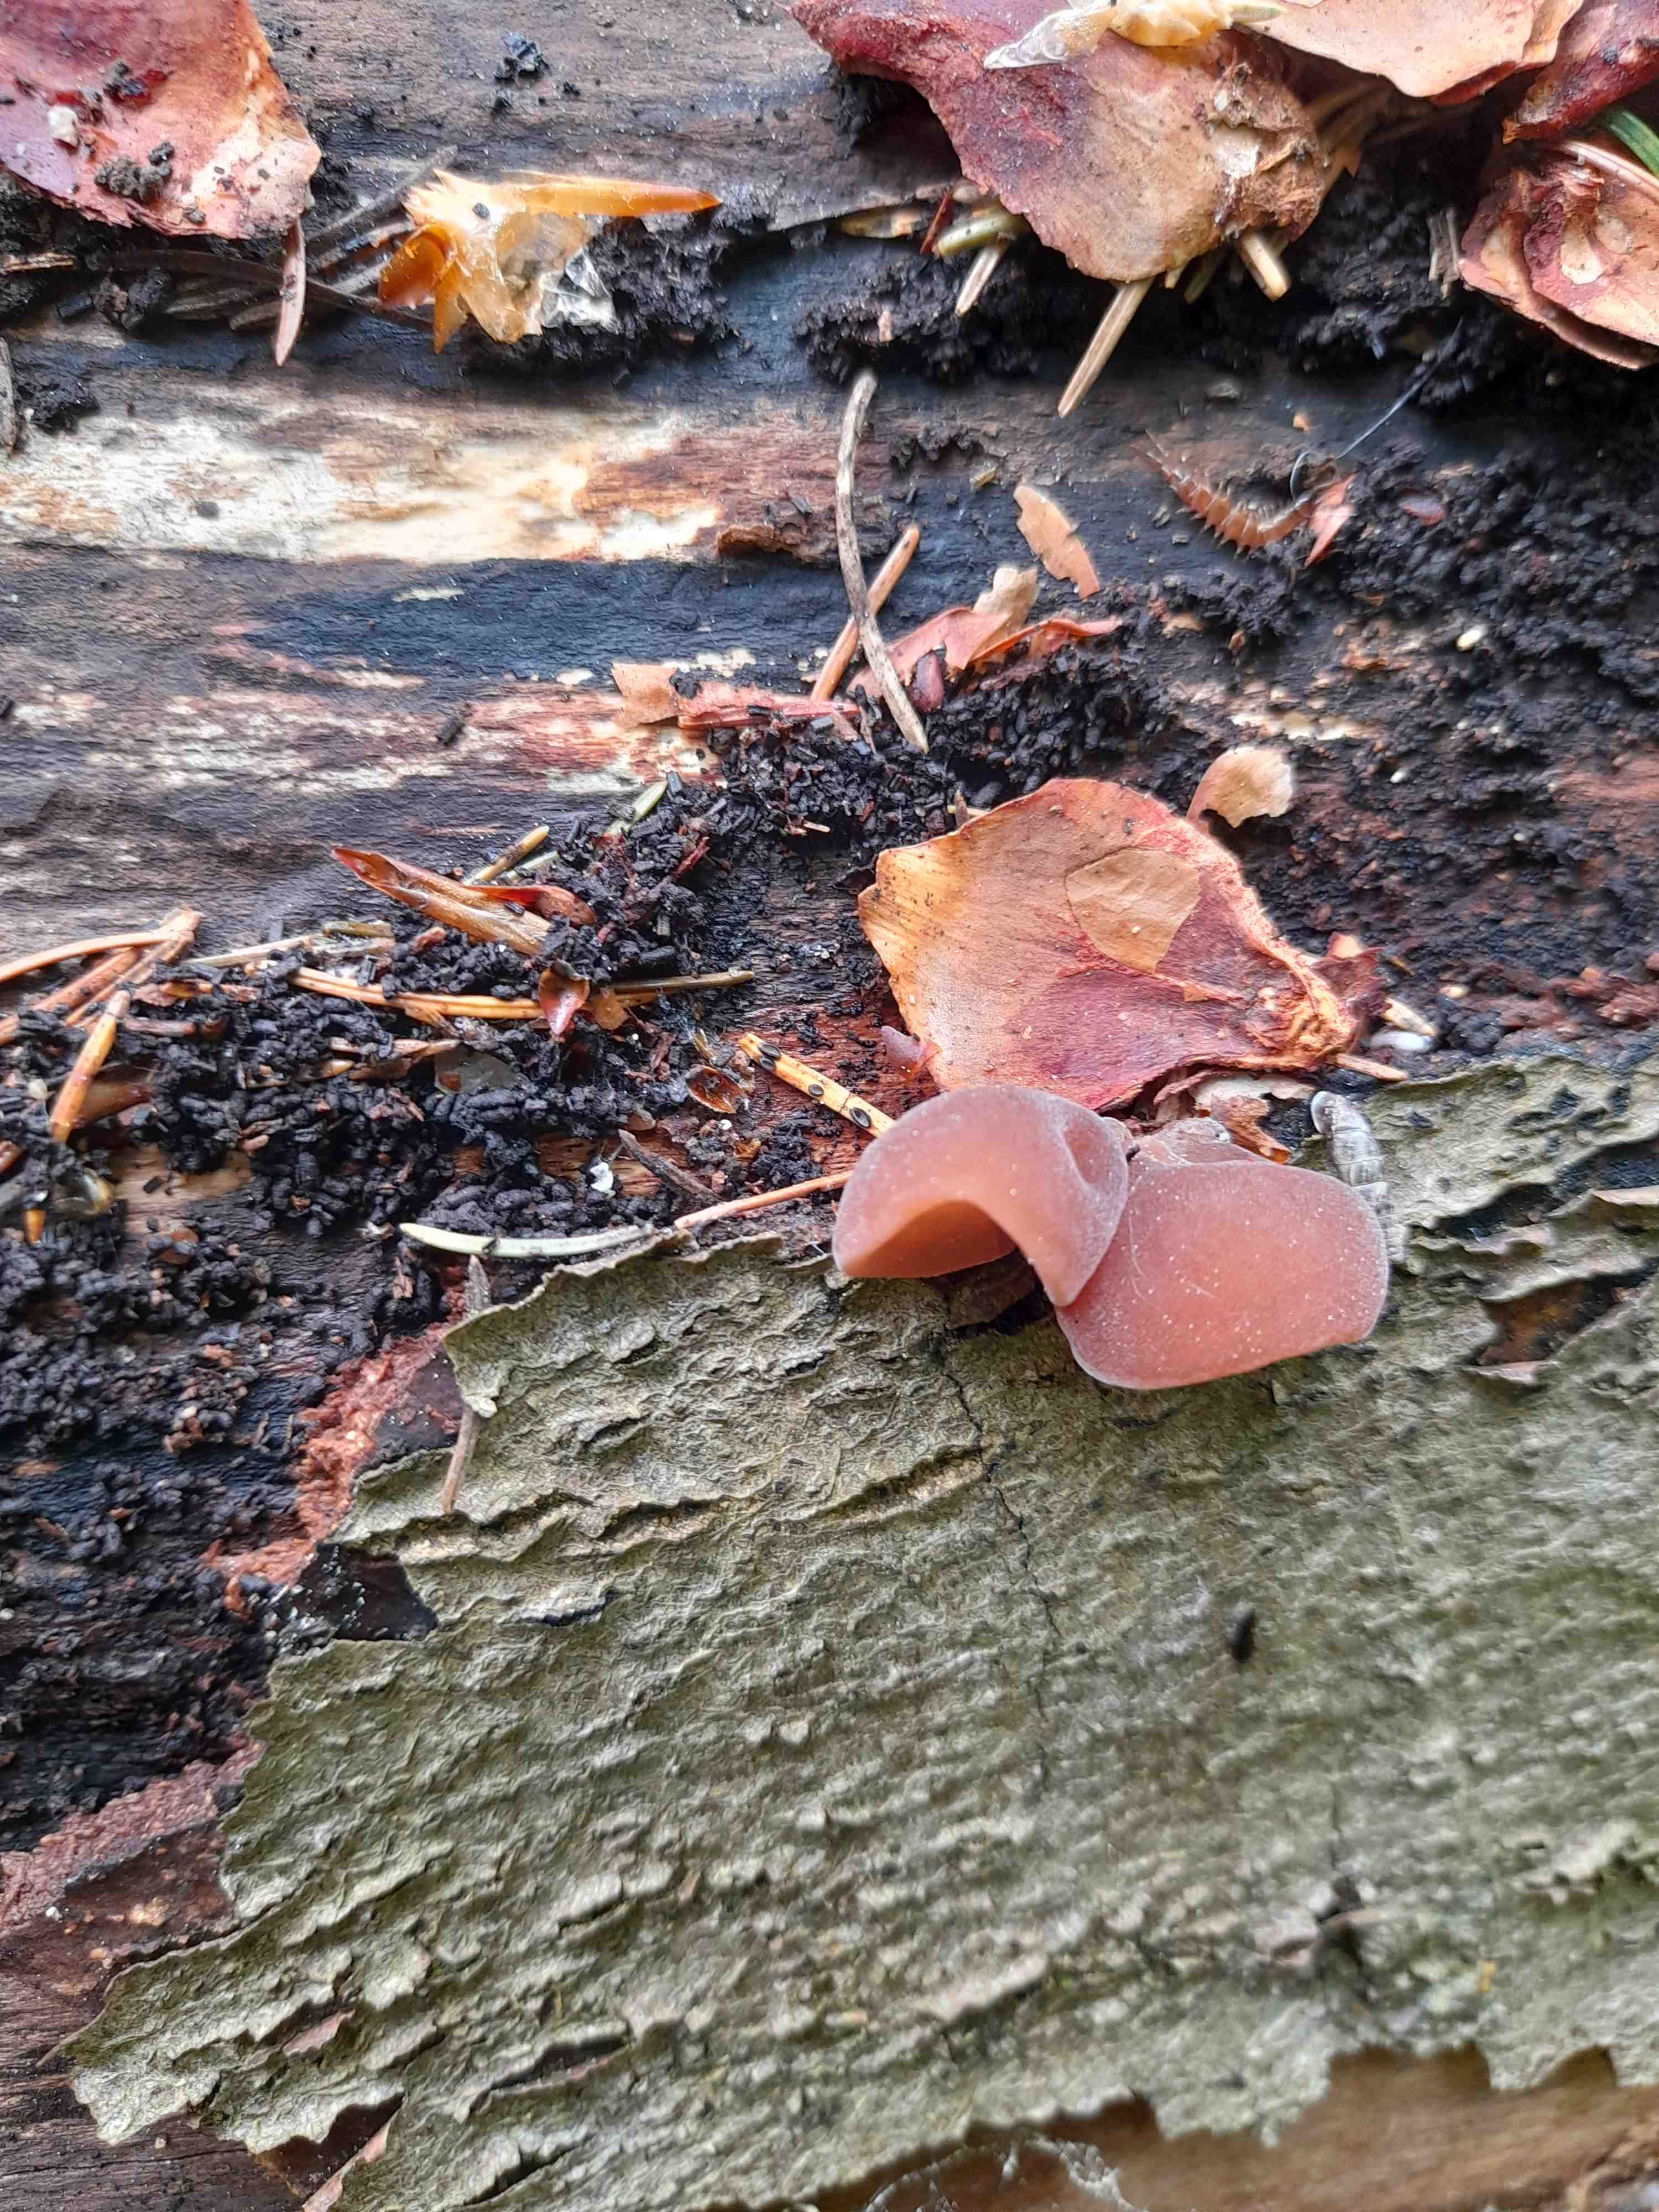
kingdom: Fungi
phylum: Basidiomycota
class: Agaricomycetes
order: Auriculariales
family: Auriculariaceae
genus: Auricularia
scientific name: Auricularia auricula-judae
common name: almindelig judasøre
